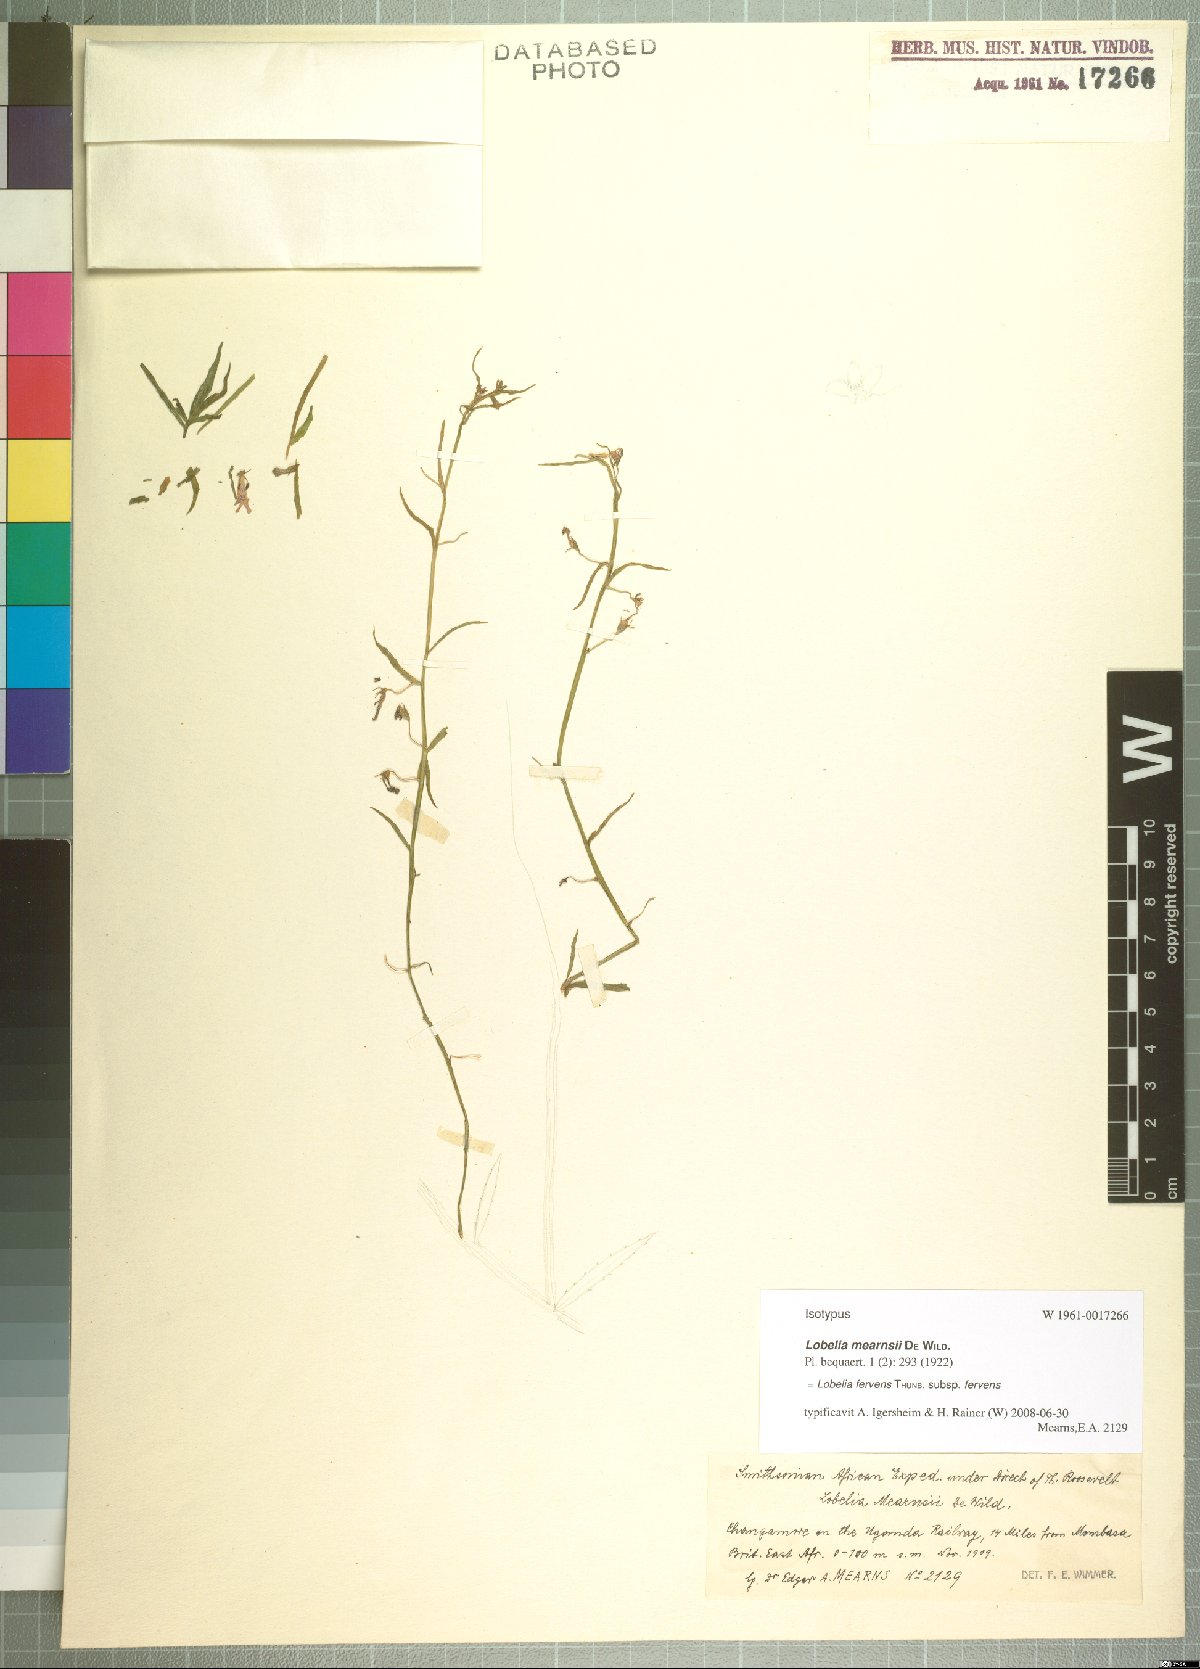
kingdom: Plantae
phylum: Tracheophyta
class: Magnoliopsida
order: Asterales
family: Campanulaceae
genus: Lobelia
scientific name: Lobelia fervens
